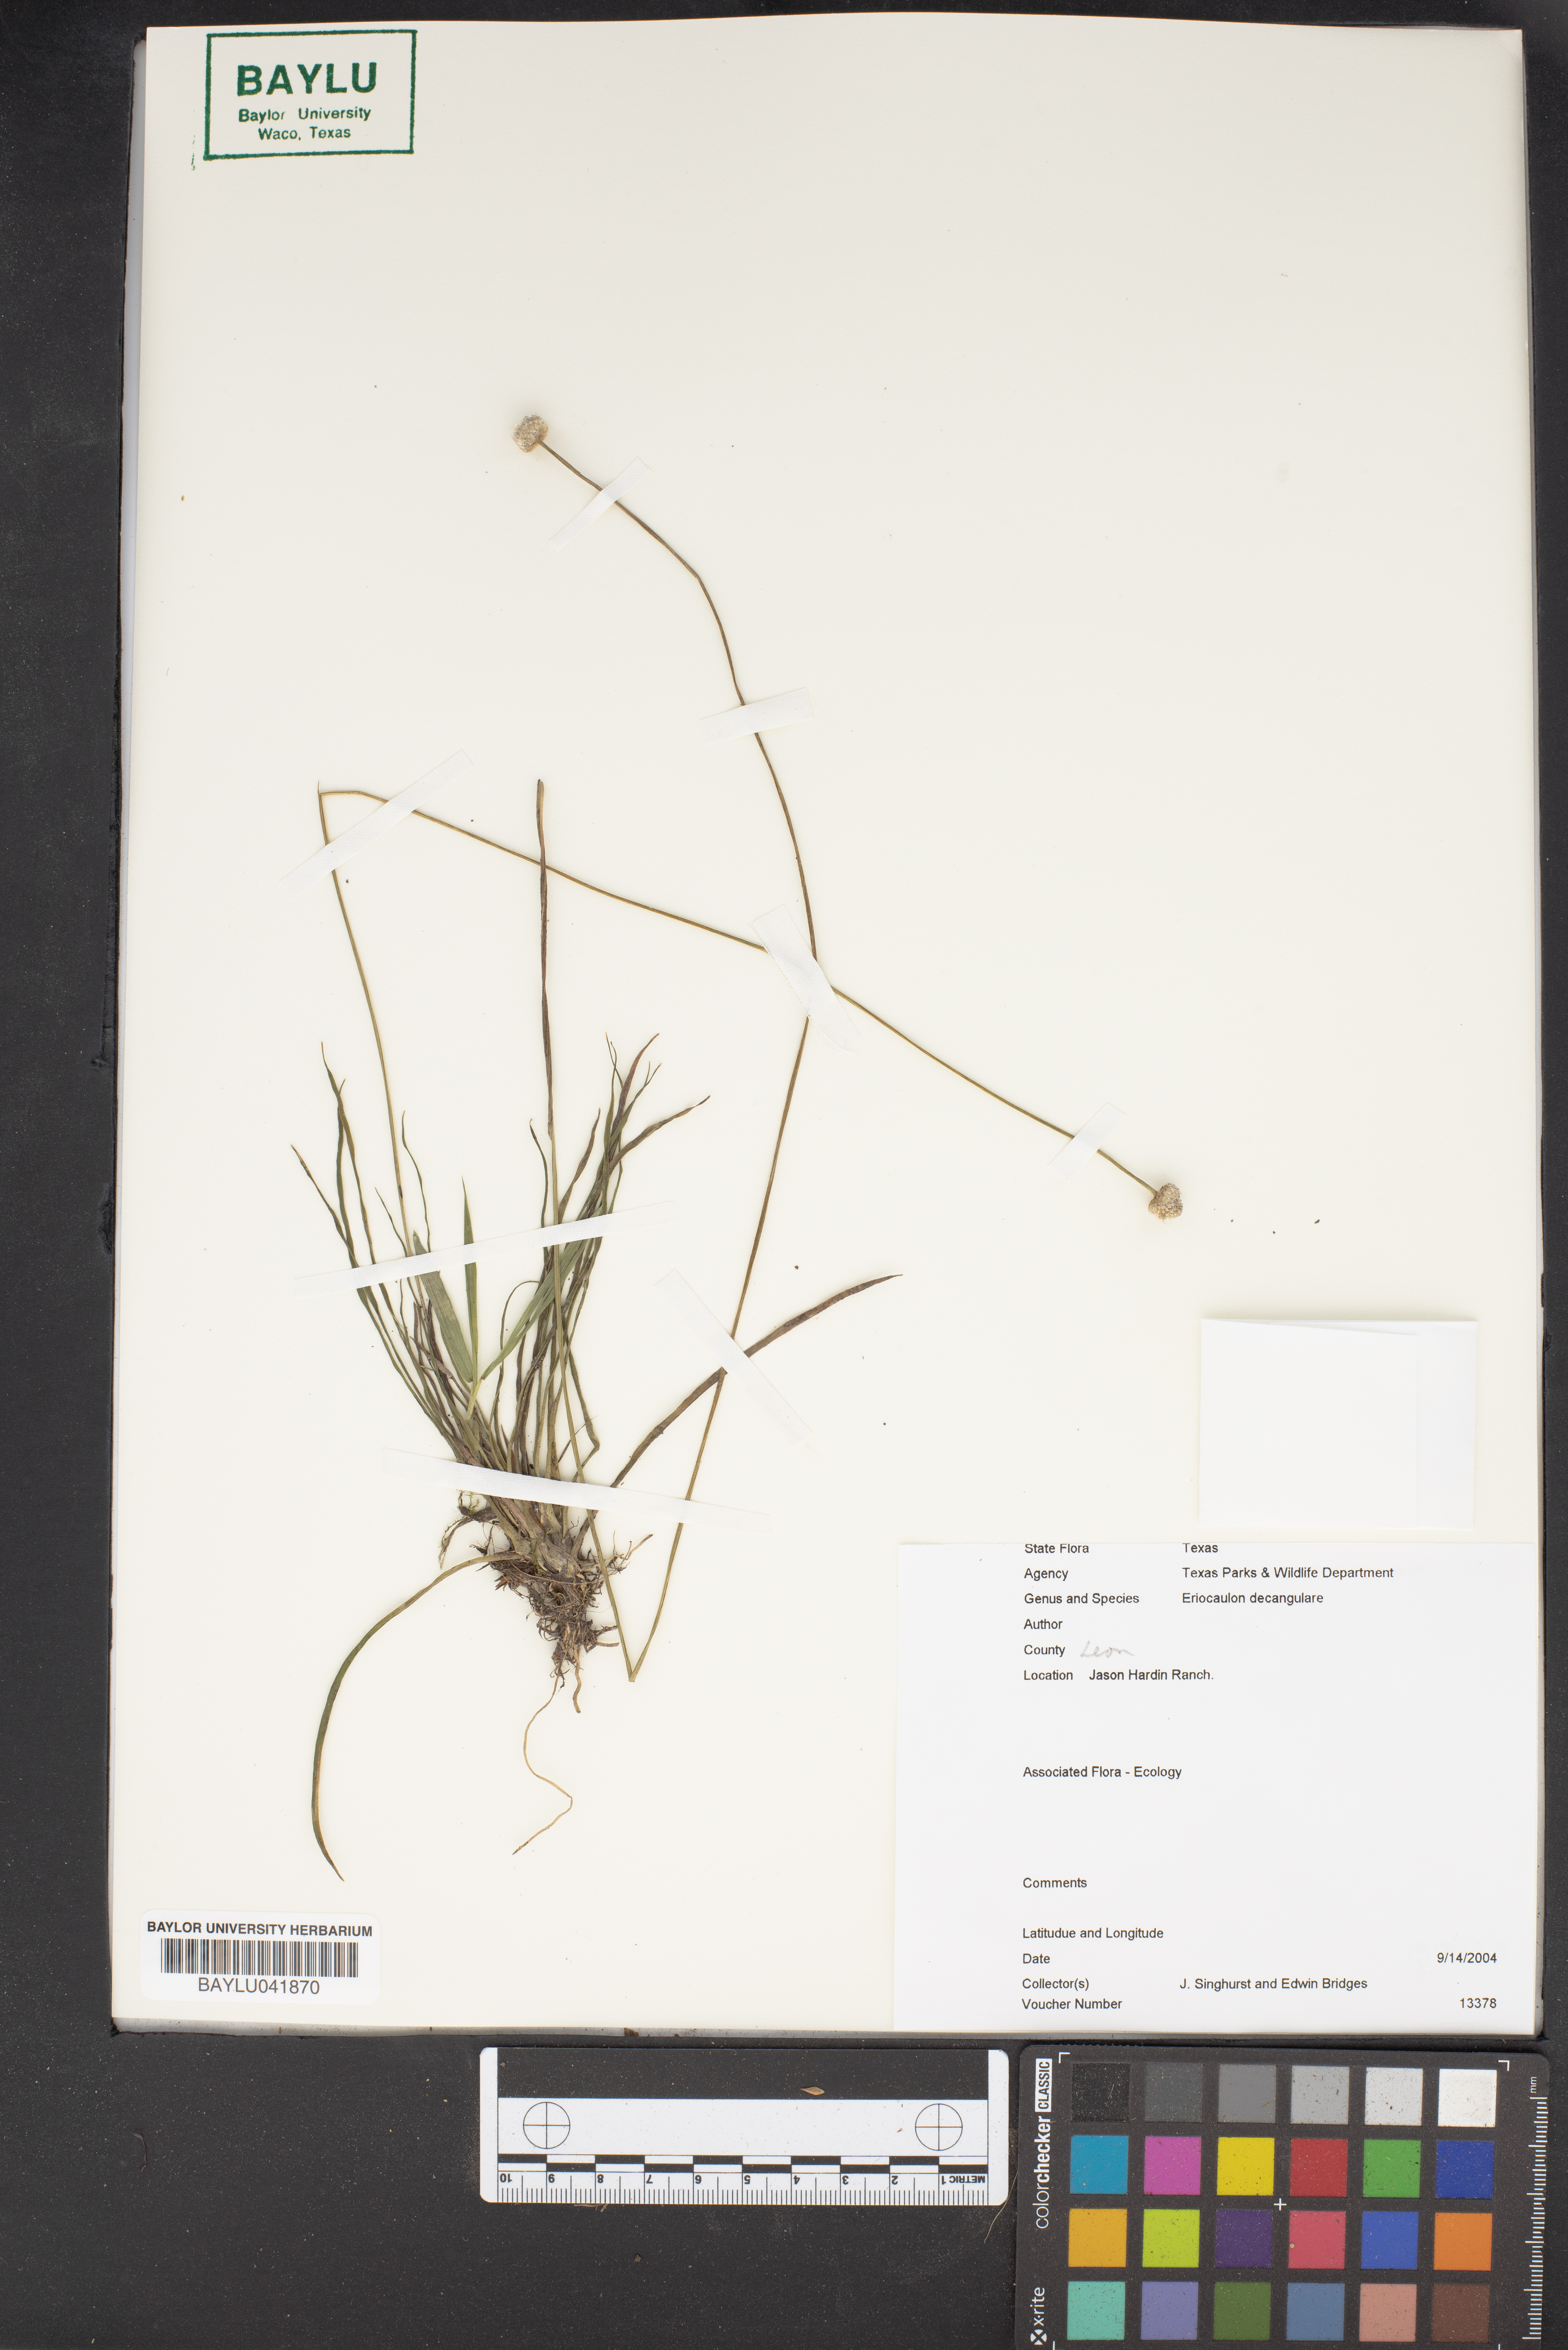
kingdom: Plantae
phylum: Tracheophyta
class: Liliopsida
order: Poales
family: Eriocaulaceae
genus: Eriocaulon
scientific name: Eriocaulon decangulare
